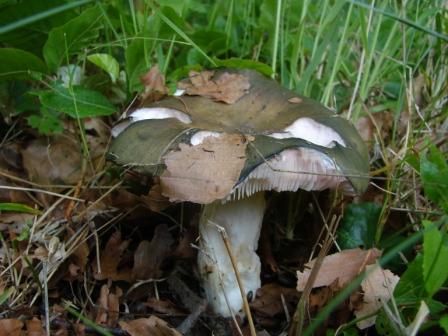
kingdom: Fungi
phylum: Basidiomycota
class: Agaricomycetes
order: Russulales
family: Russulaceae
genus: Russula
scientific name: Russula cyanoxantha
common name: broget skørhat
